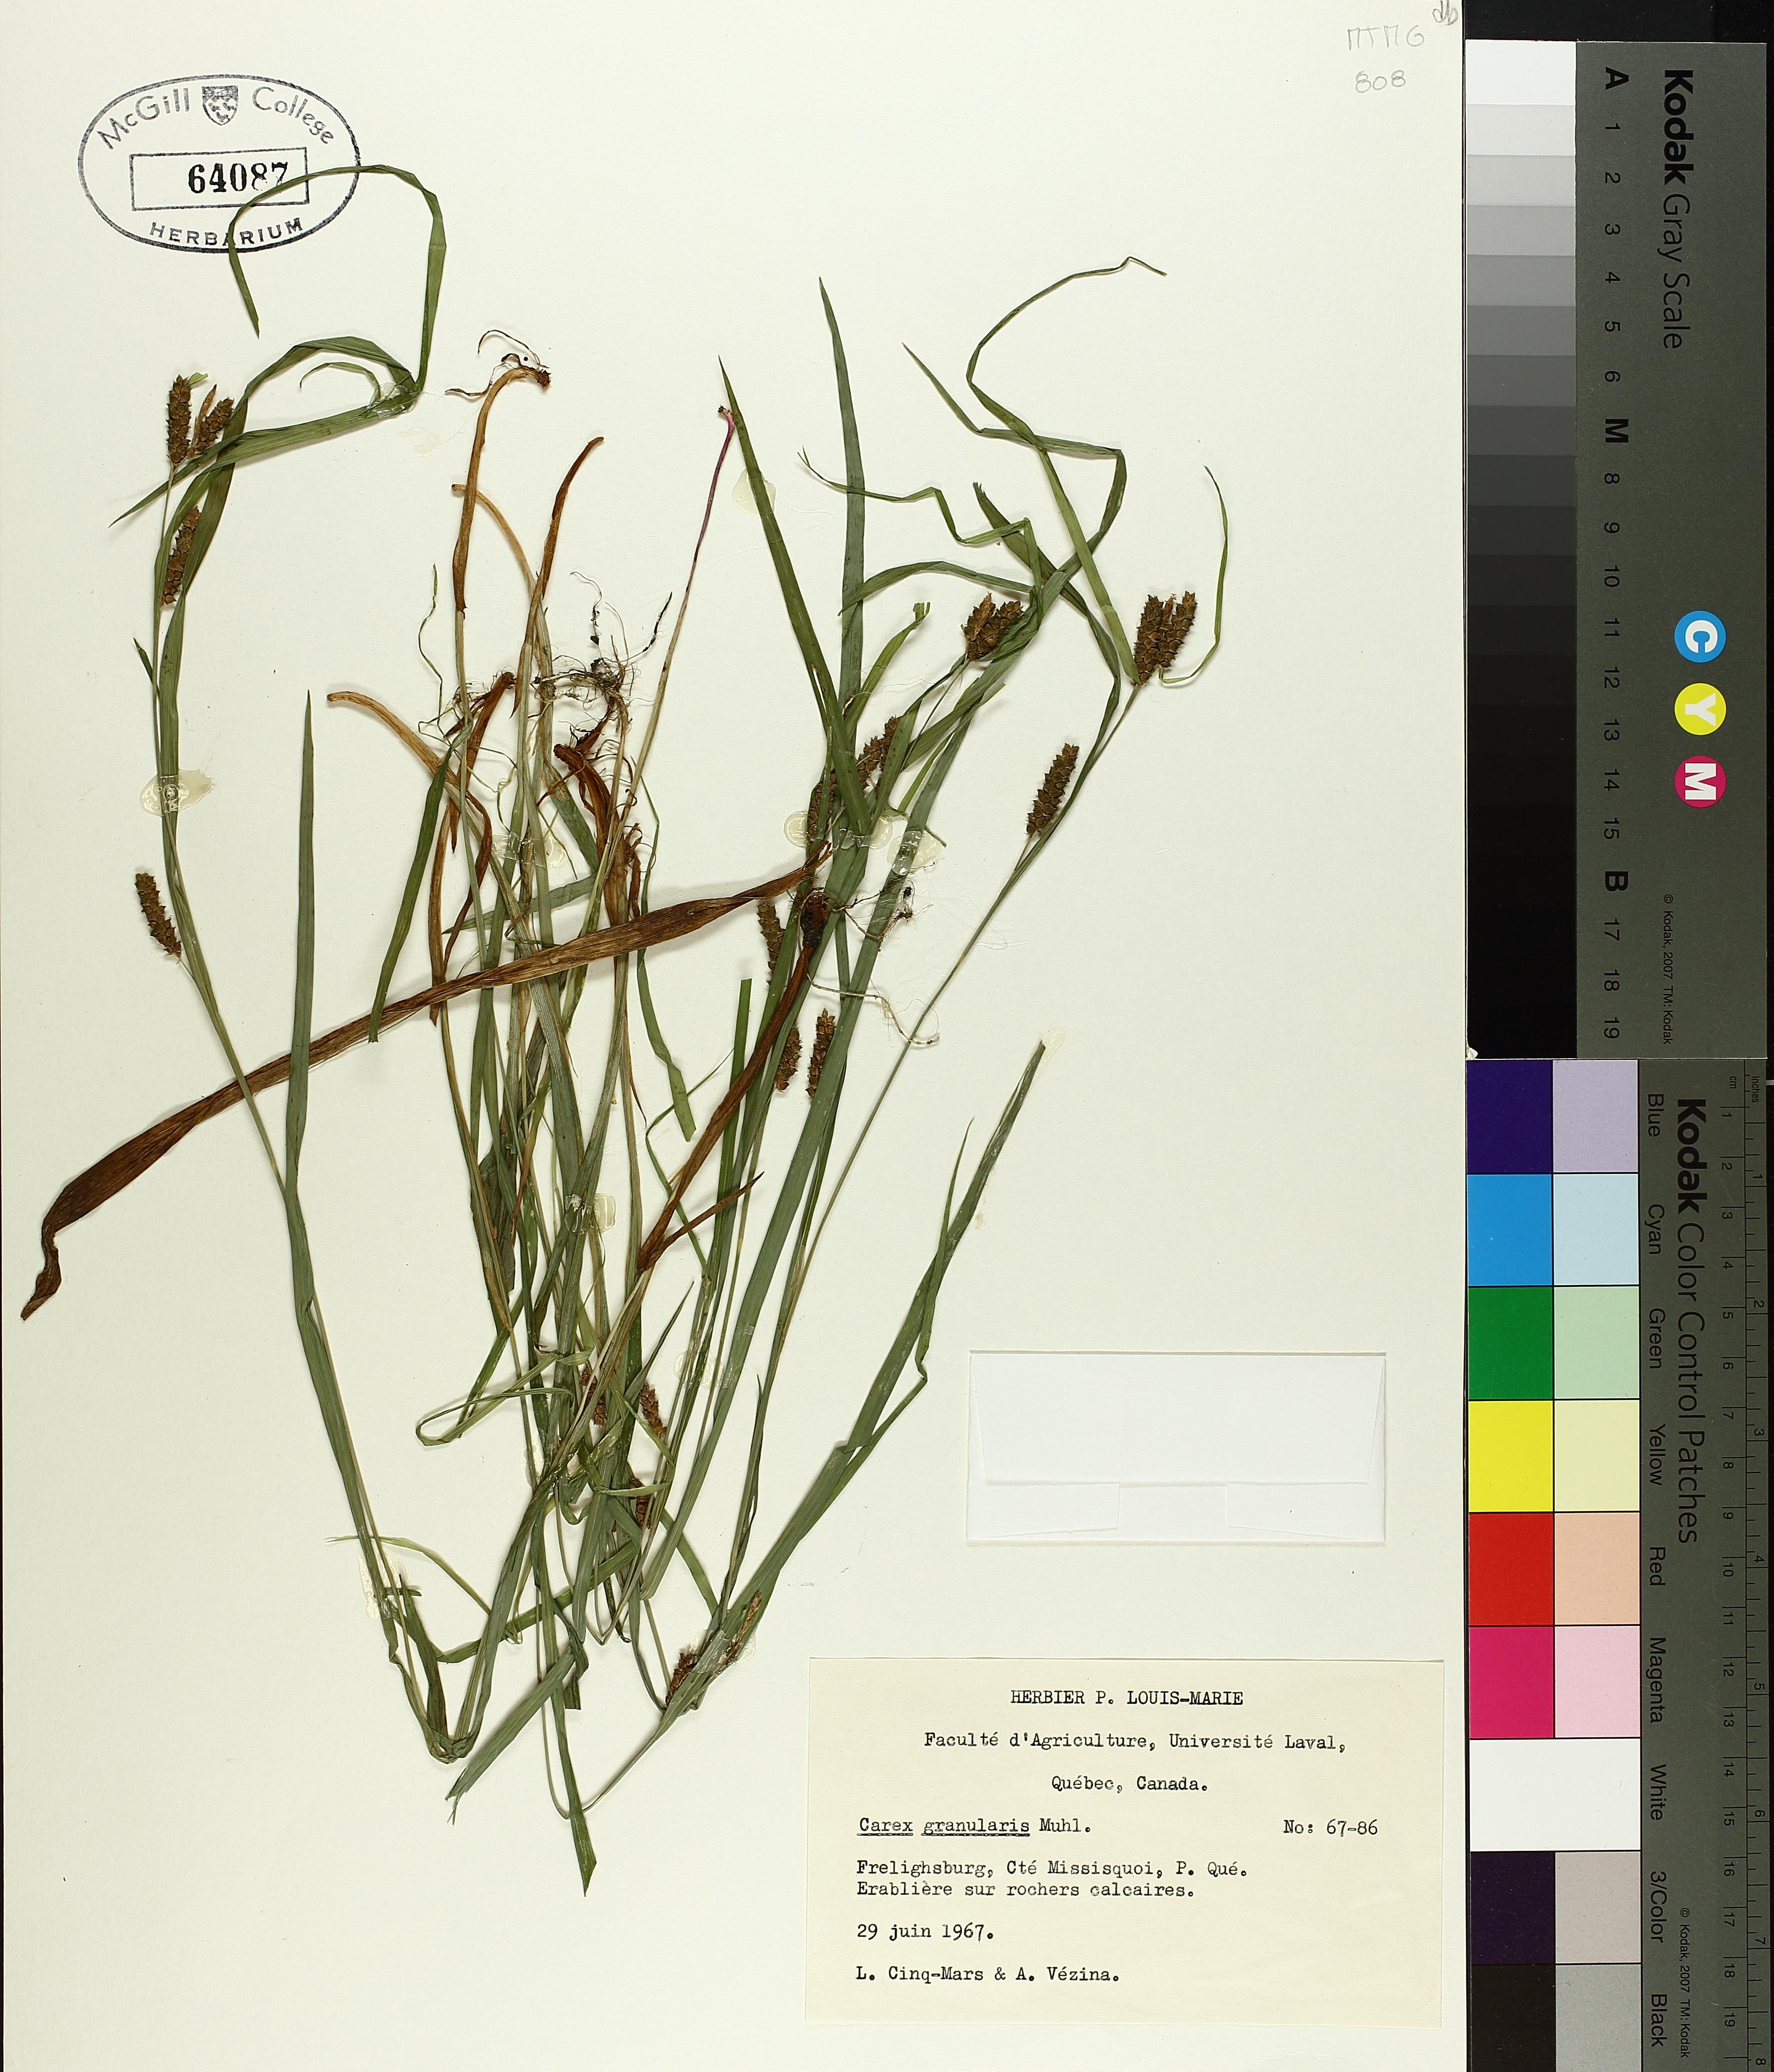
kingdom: Plantae
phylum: Tracheophyta
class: Liliopsida
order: Poales
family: Cyperaceae
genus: Carex
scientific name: Carex granularis
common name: Granular sedge
